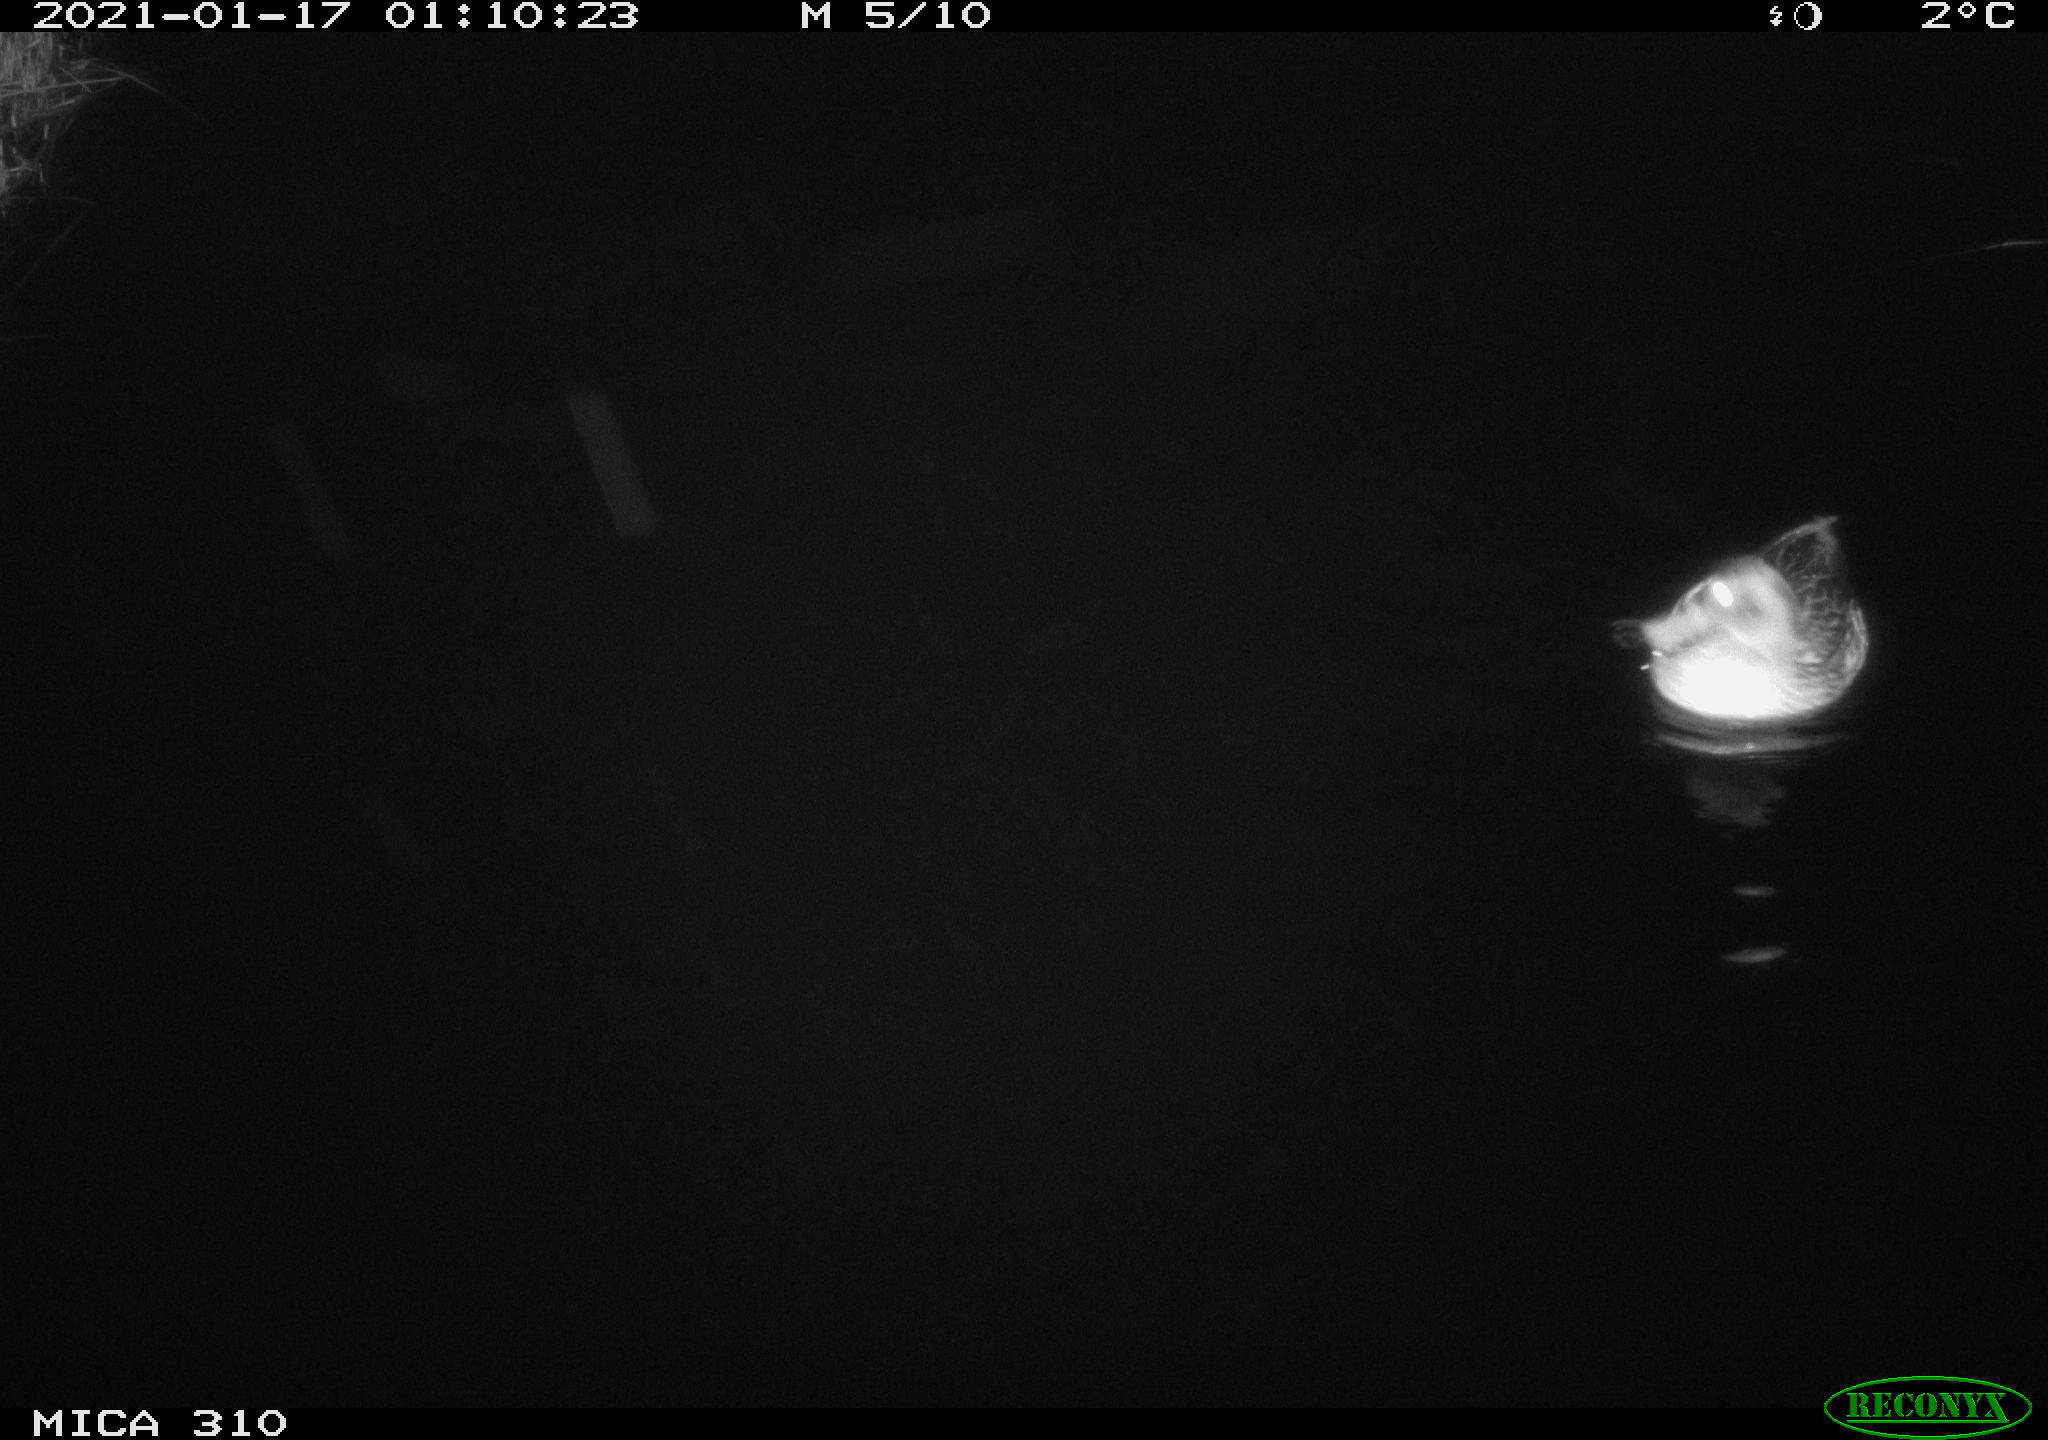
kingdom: Animalia
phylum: Chordata
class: Aves
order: Anseriformes
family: Anatidae
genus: Anas
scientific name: Anas platyrhynchos
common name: Mallard
